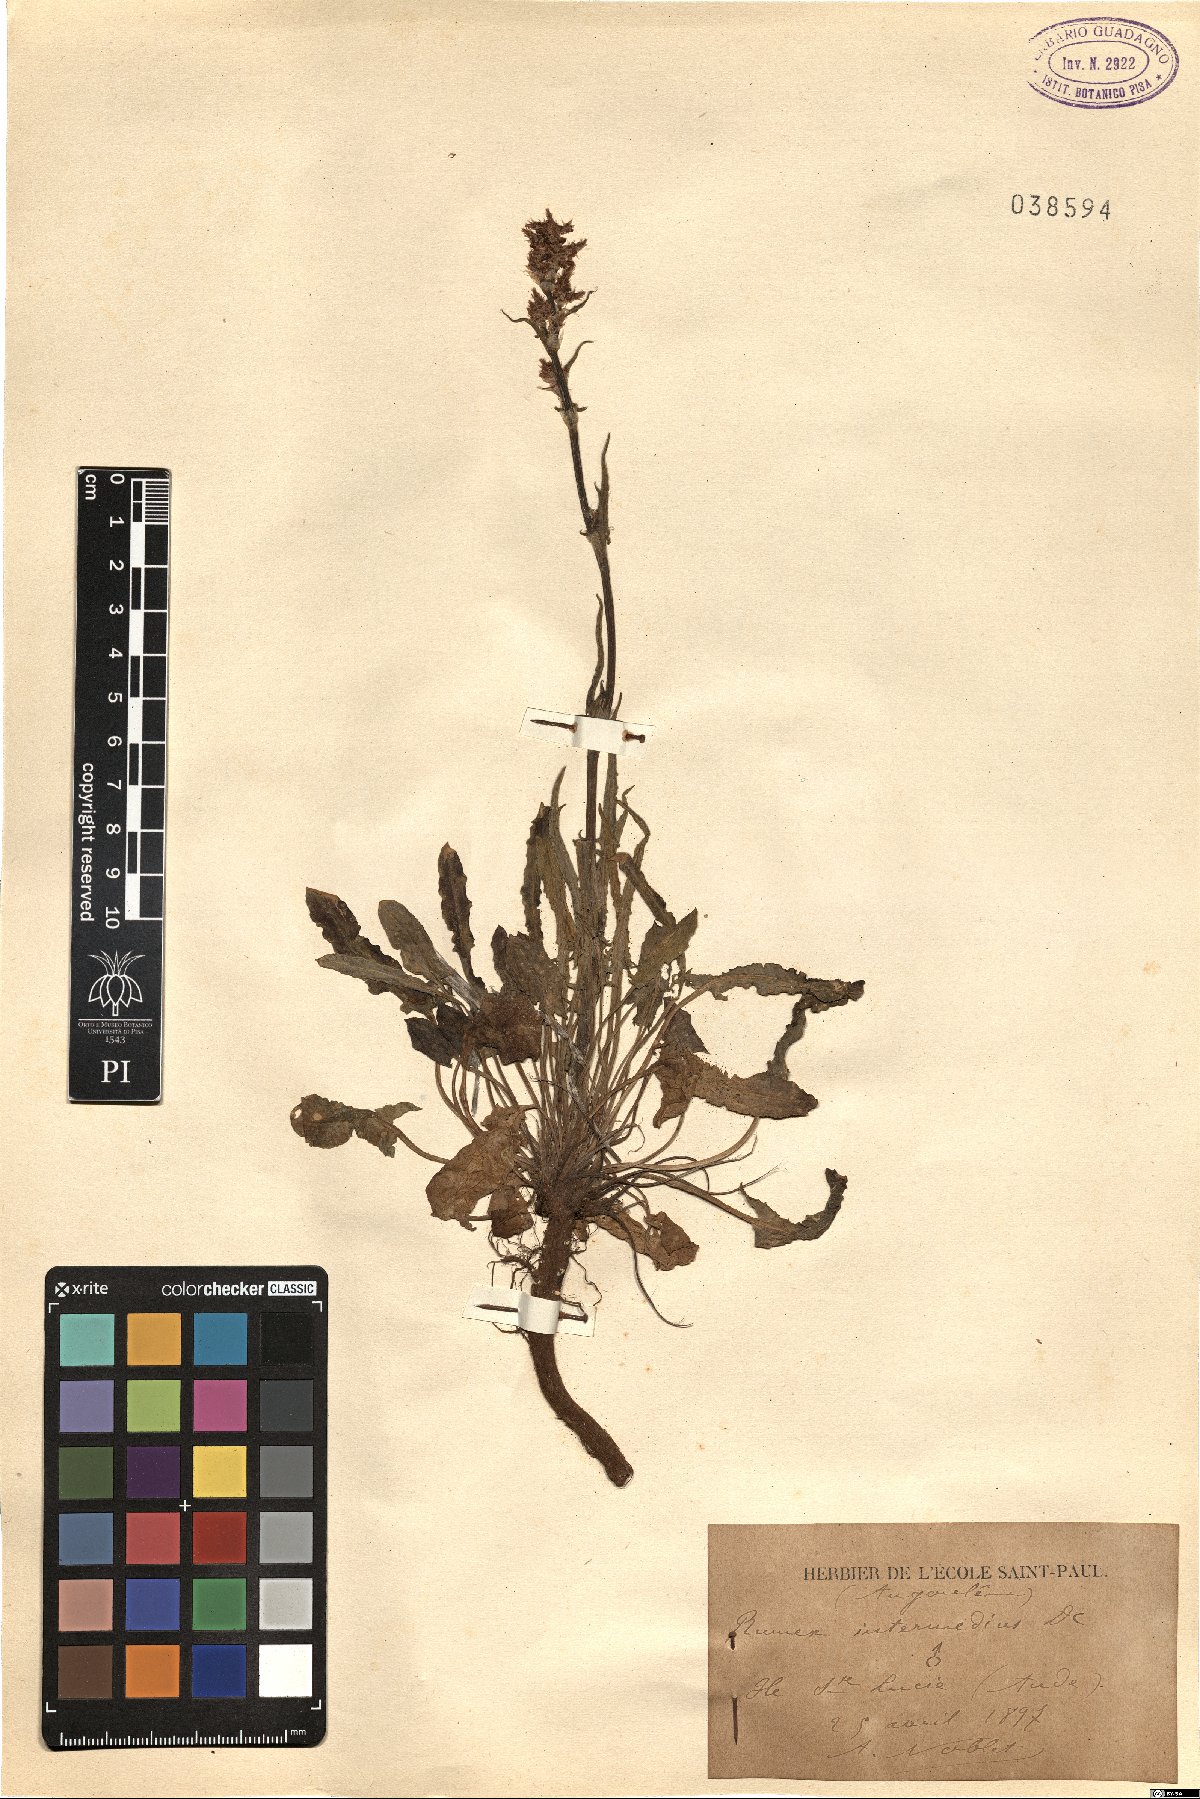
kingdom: Plantae
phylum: Tracheophyta
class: Magnoliopsida
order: Caryophyllales
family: Polygonaceae
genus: Rumex
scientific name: Rumex intermedius
